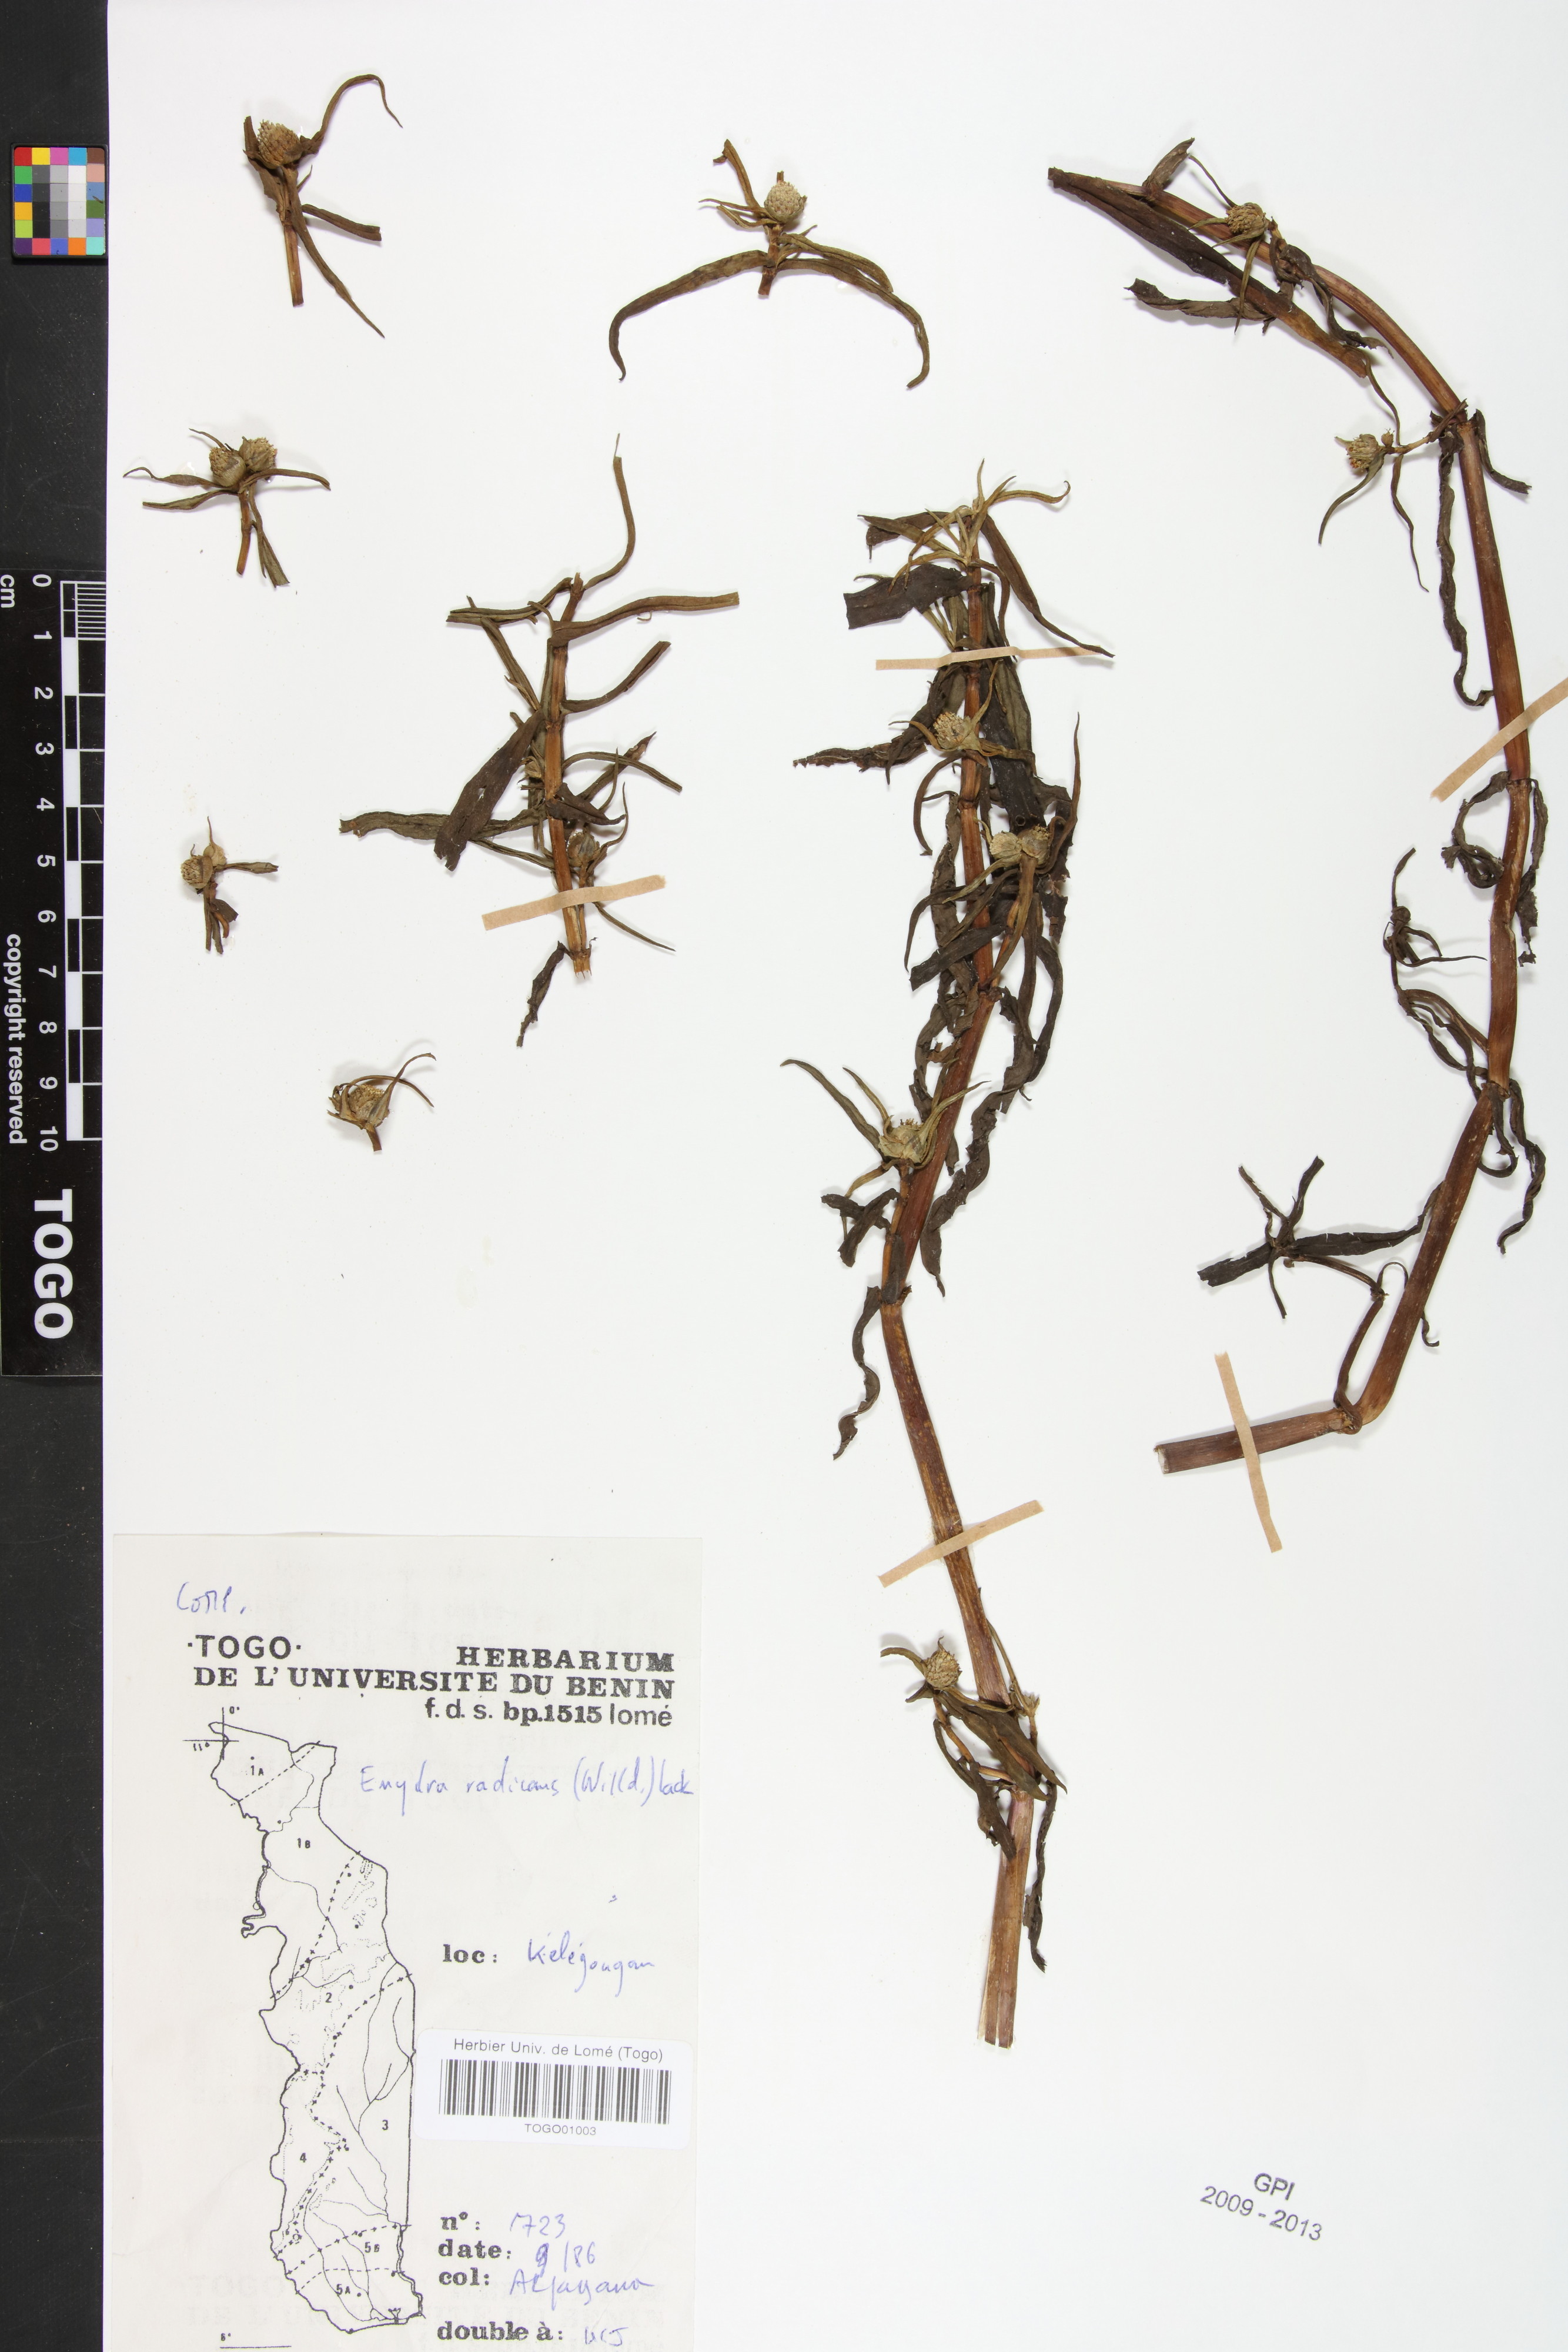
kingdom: Plantae
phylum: Tracheophyta
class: Magnoliopsida
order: Asterales
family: Asteraceae
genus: Enydra
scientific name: Enydra radicans
